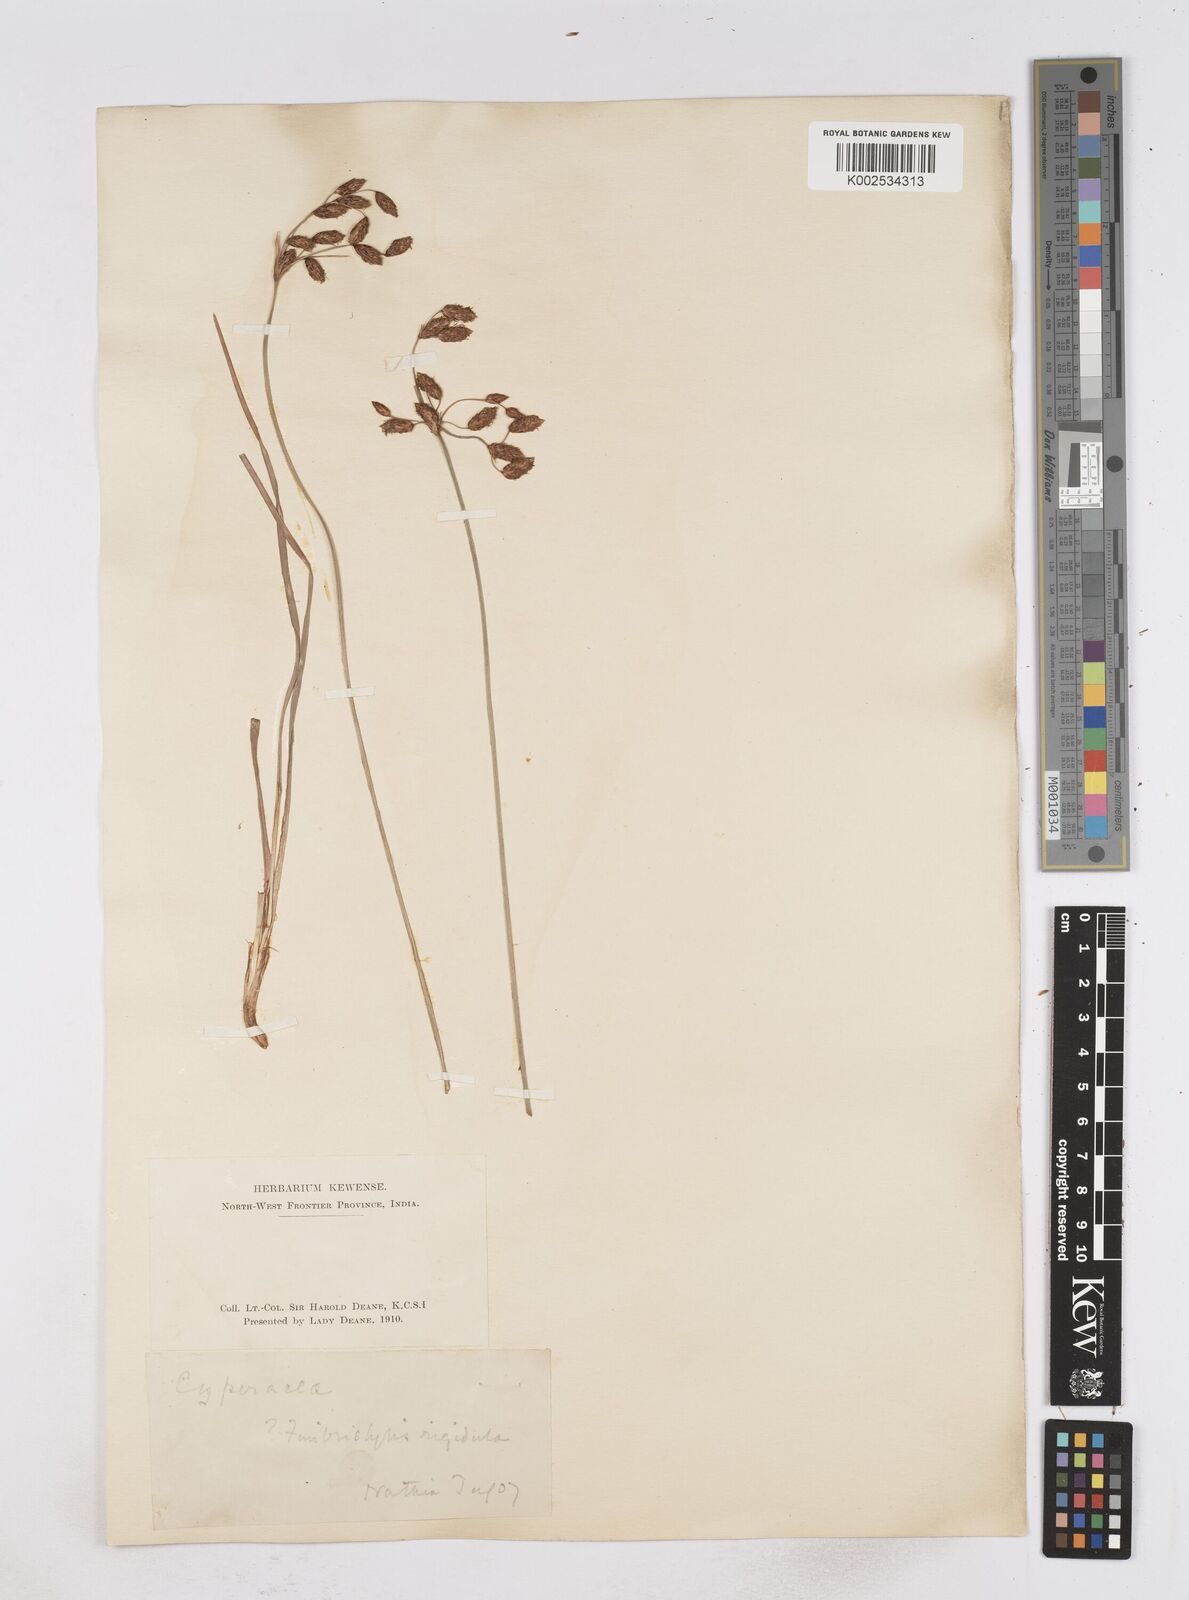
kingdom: Plantae
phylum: Tracheophyta
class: Liliopsida
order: Poales
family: Cyperaceae
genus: Fimbristylis
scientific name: Fimbristylis rigidula
